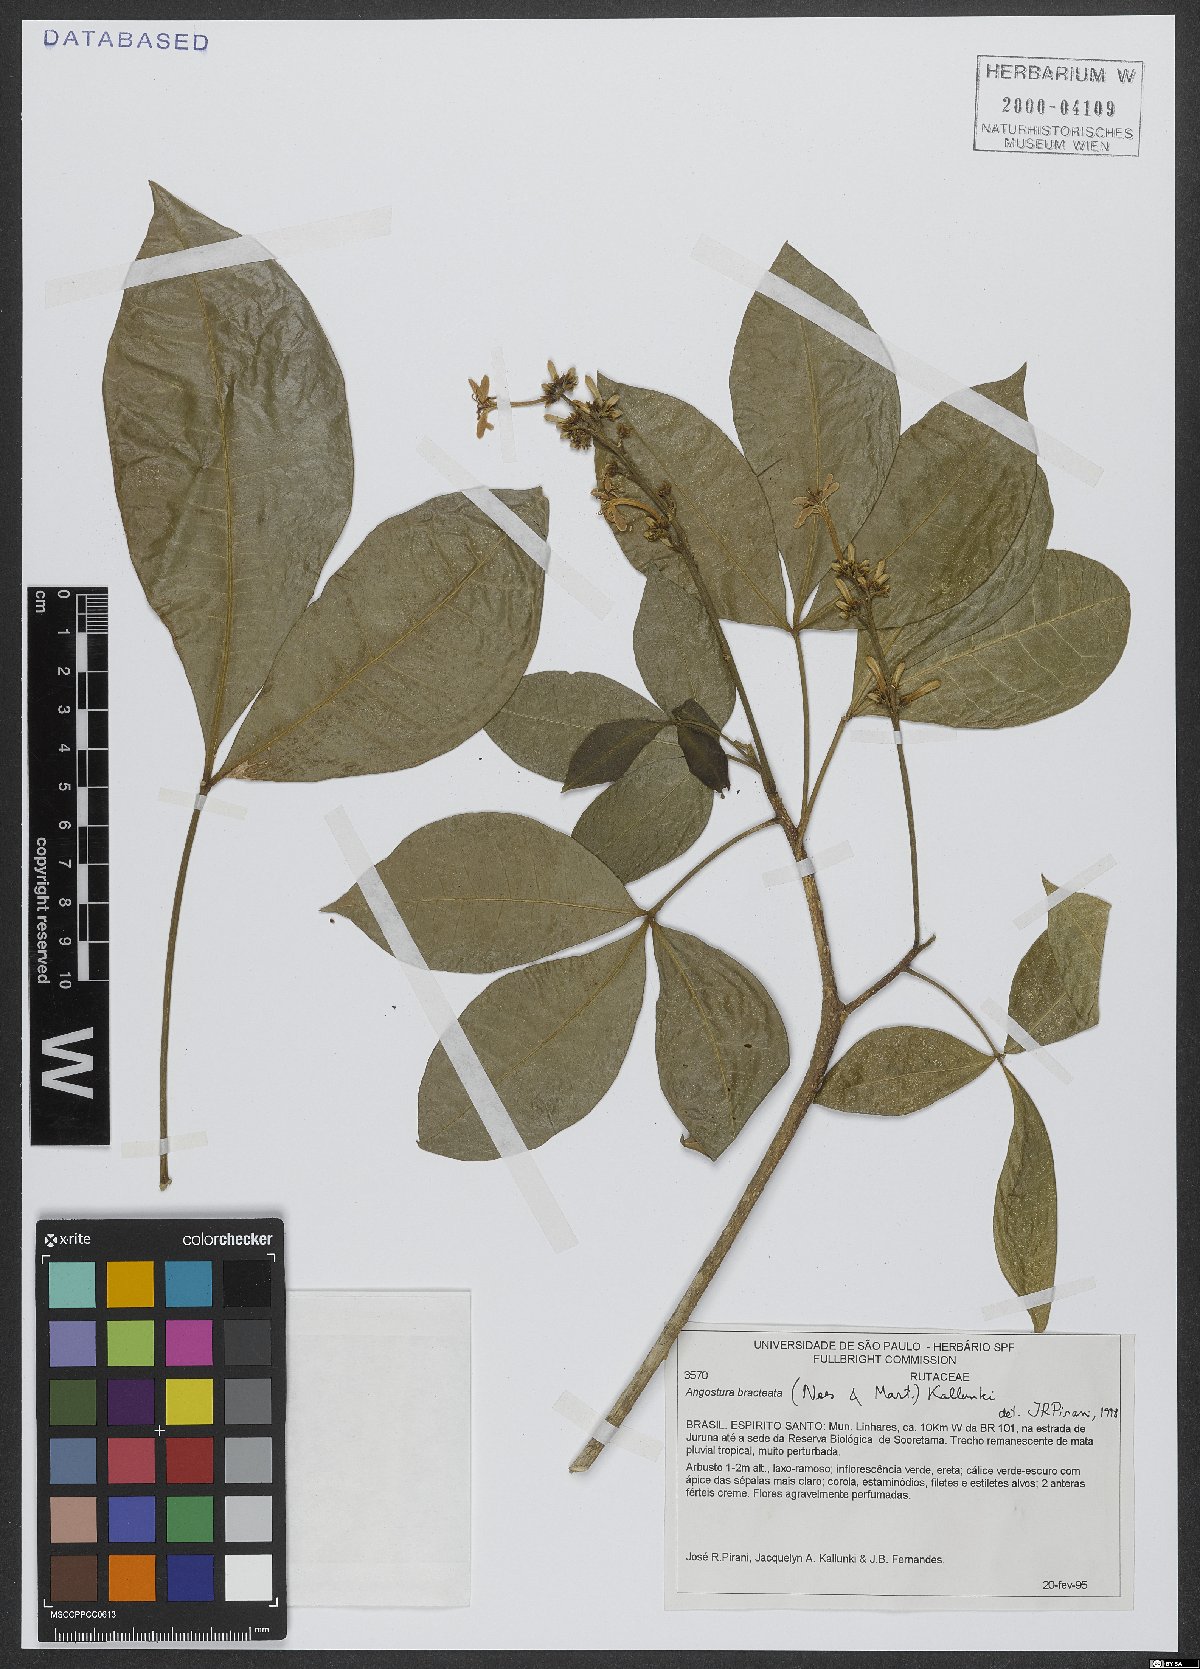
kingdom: Plantae
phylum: Tracheophyta
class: Magnoliopsida
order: Sapindales
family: Rutaceae
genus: Angostura
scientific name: Angostura bracteata
